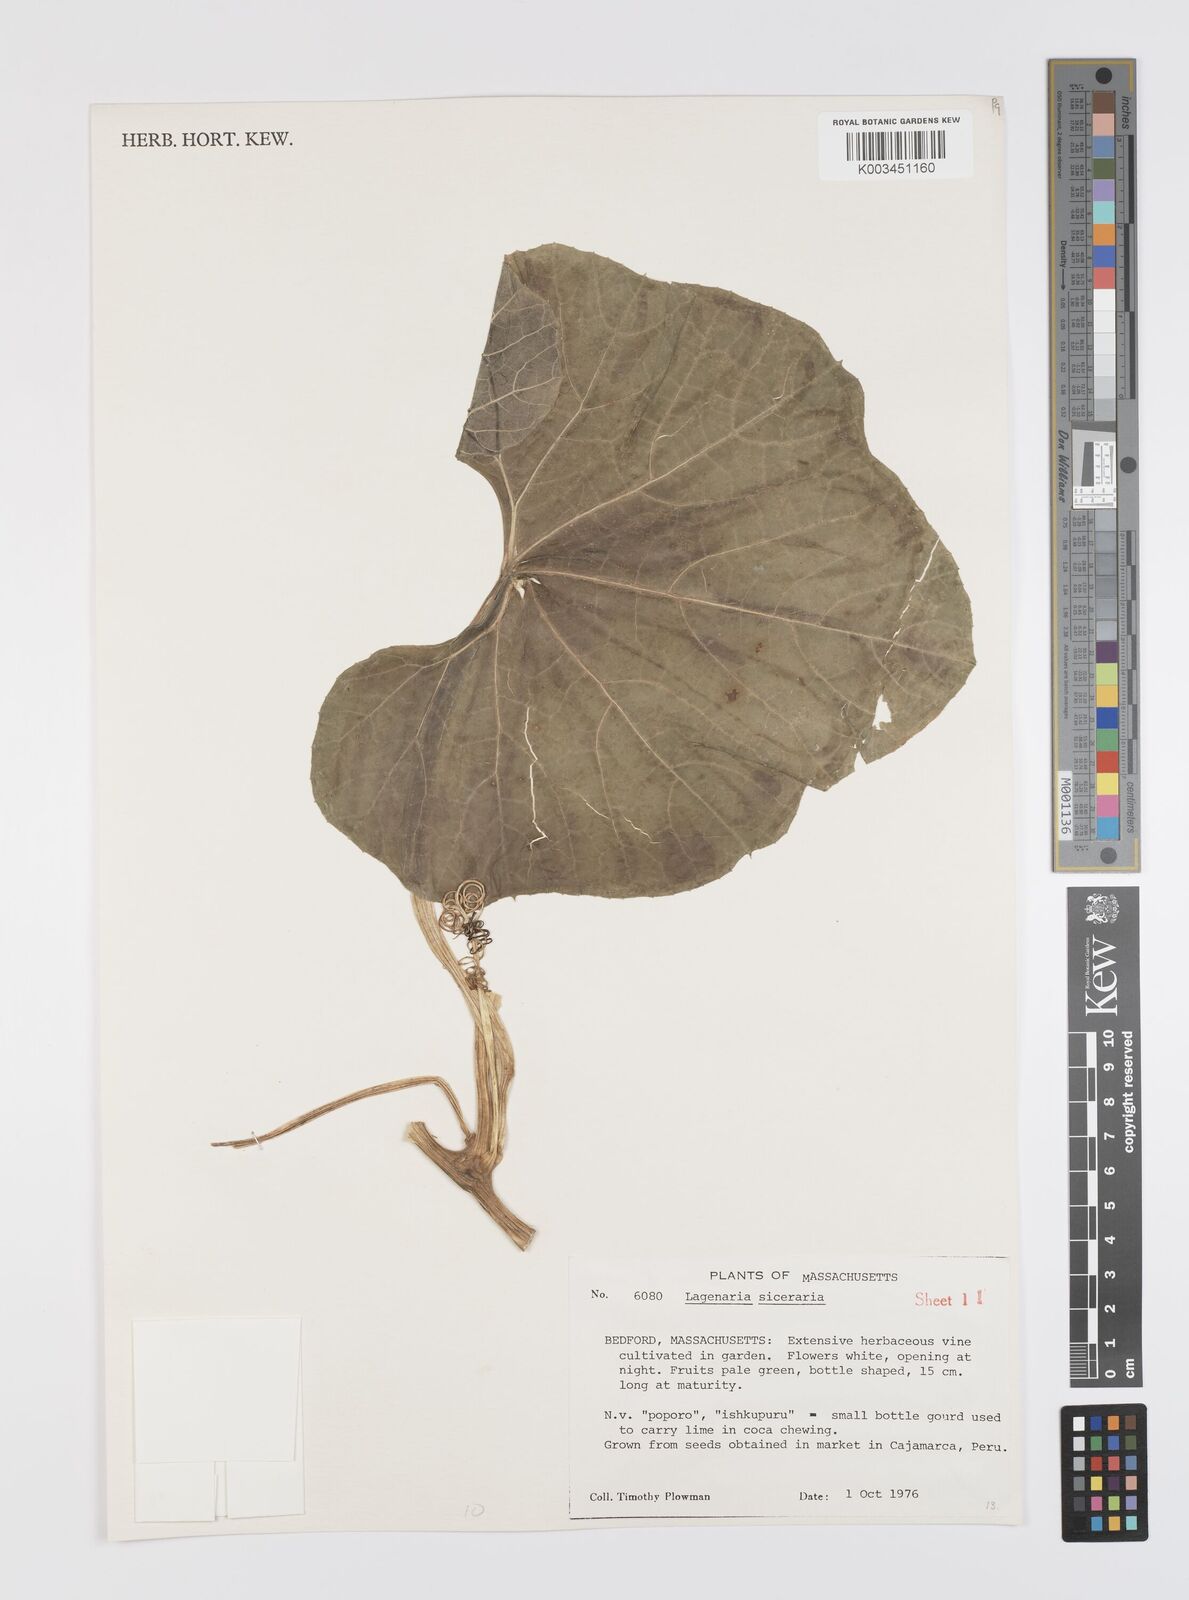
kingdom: Plantae
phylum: Tracheophyta
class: Magnoliopsida
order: Cucurbitales
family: Cucurbitaceae
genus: Lagenaria
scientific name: Lagenaria siceraria
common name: Bottle gourd
